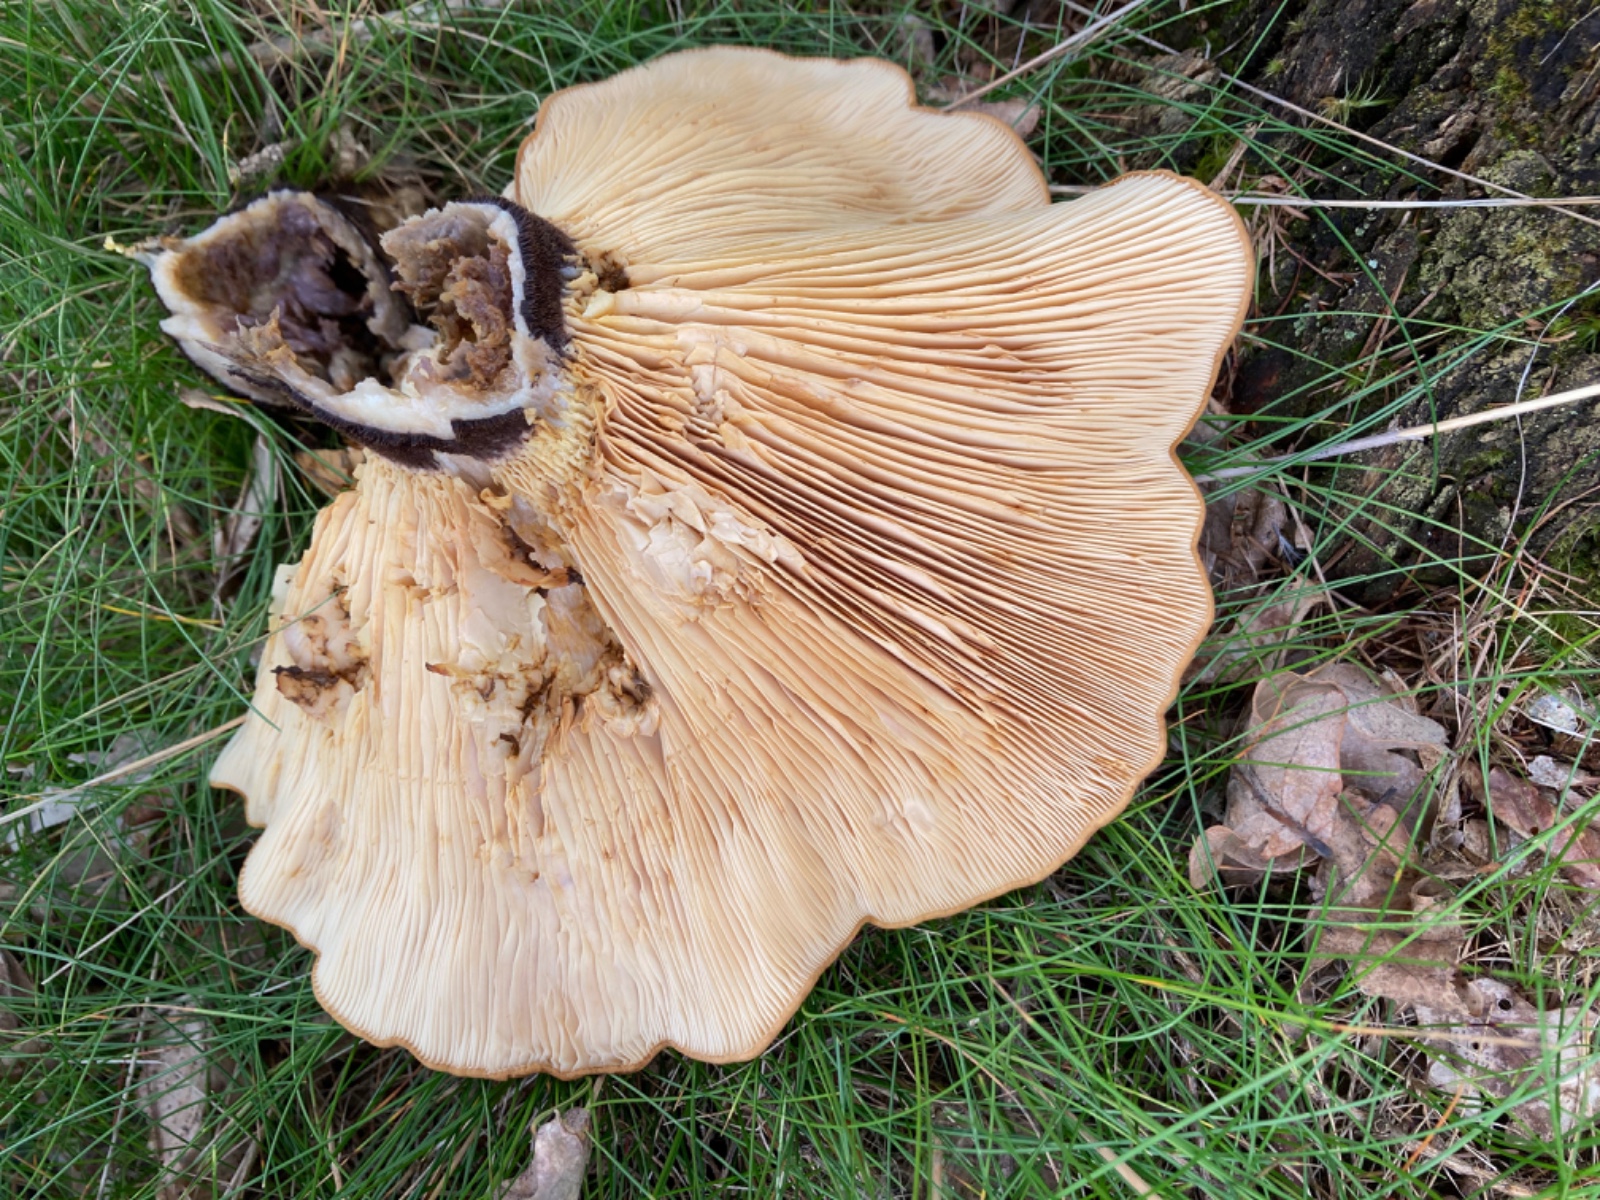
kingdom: Fungi
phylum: Basidiomycota
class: Agaricomycetes
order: Boletales
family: Tapinellaceae
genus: Tapinella
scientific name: Tapinella atrotomentosa
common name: sortfiltet viftesvamp
